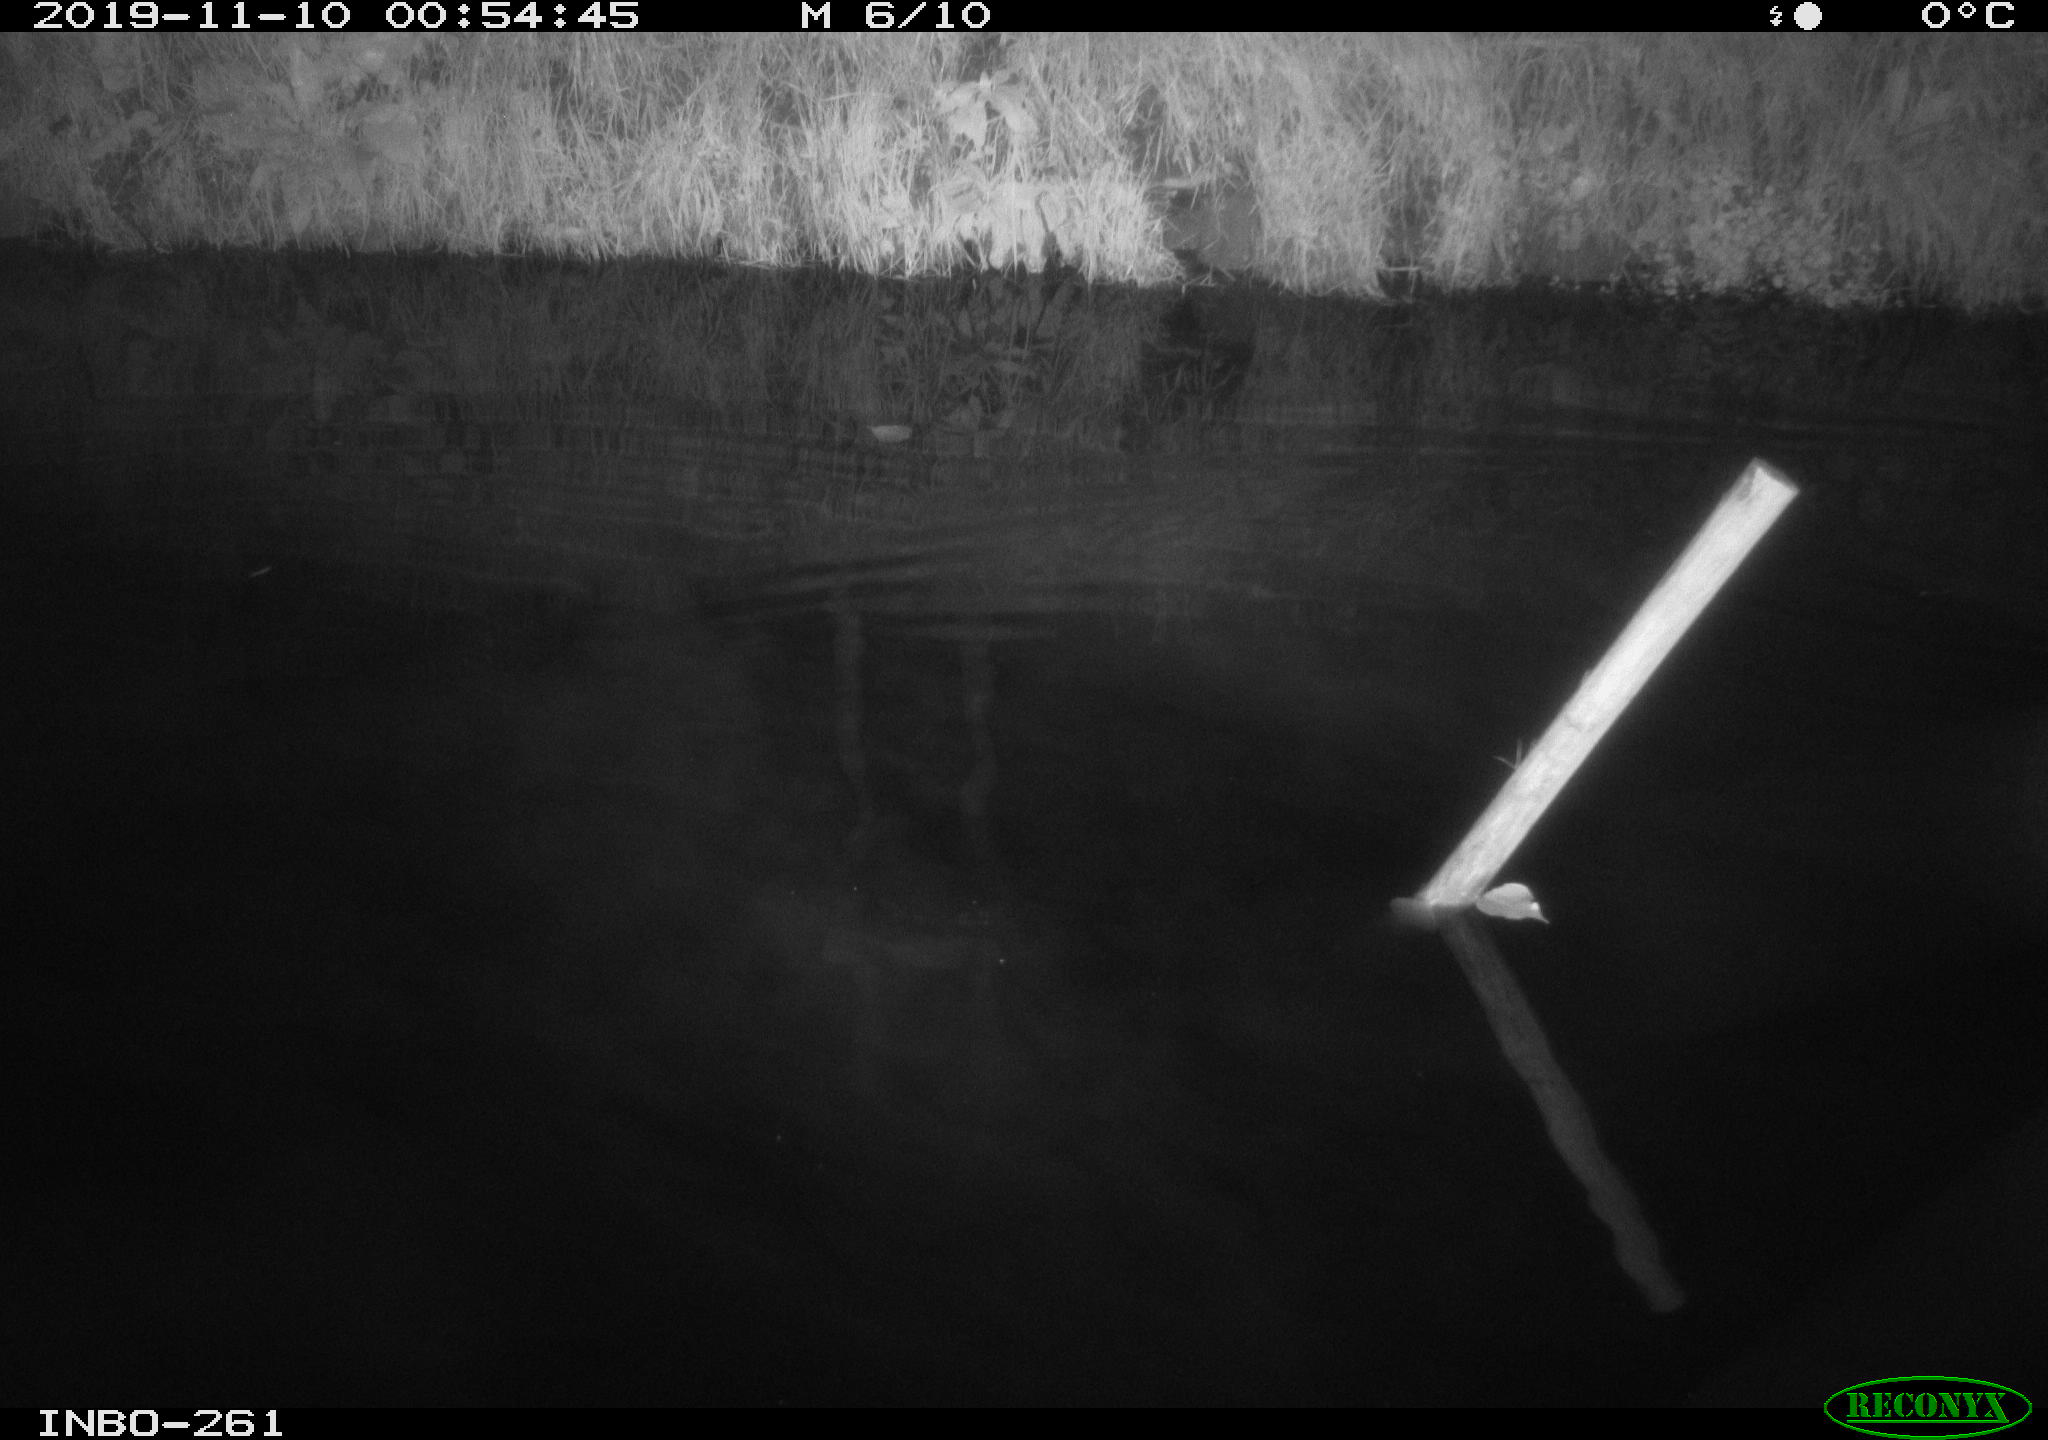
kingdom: Animalia
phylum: Chordata
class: Mammalia
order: Rodentia
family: Muridae
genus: Rattus
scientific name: Rattus norvegicus
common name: Brown rat
